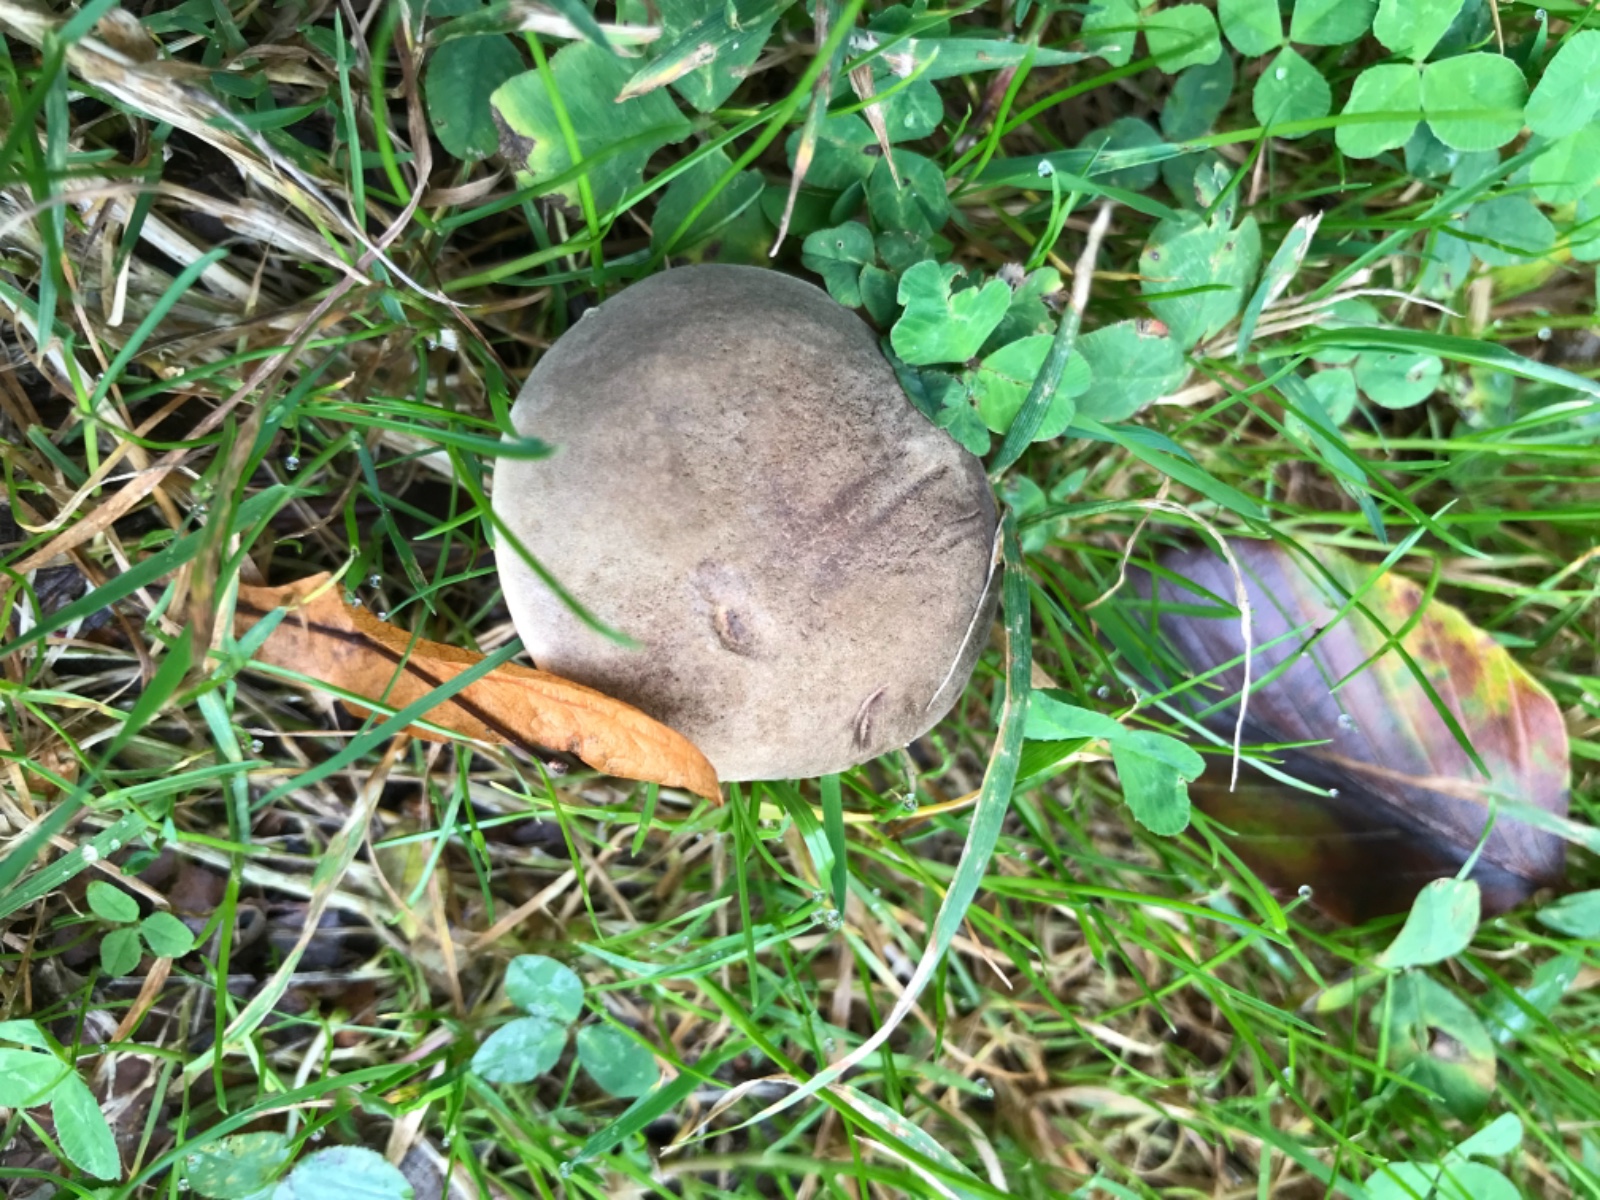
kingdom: Fungi
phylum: Basidiomycota
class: Agaricomycetes
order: Boletales
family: Boletaceae
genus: Xerocomellus
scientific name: Xerocomellus pruinatus
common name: dugget rørhat
